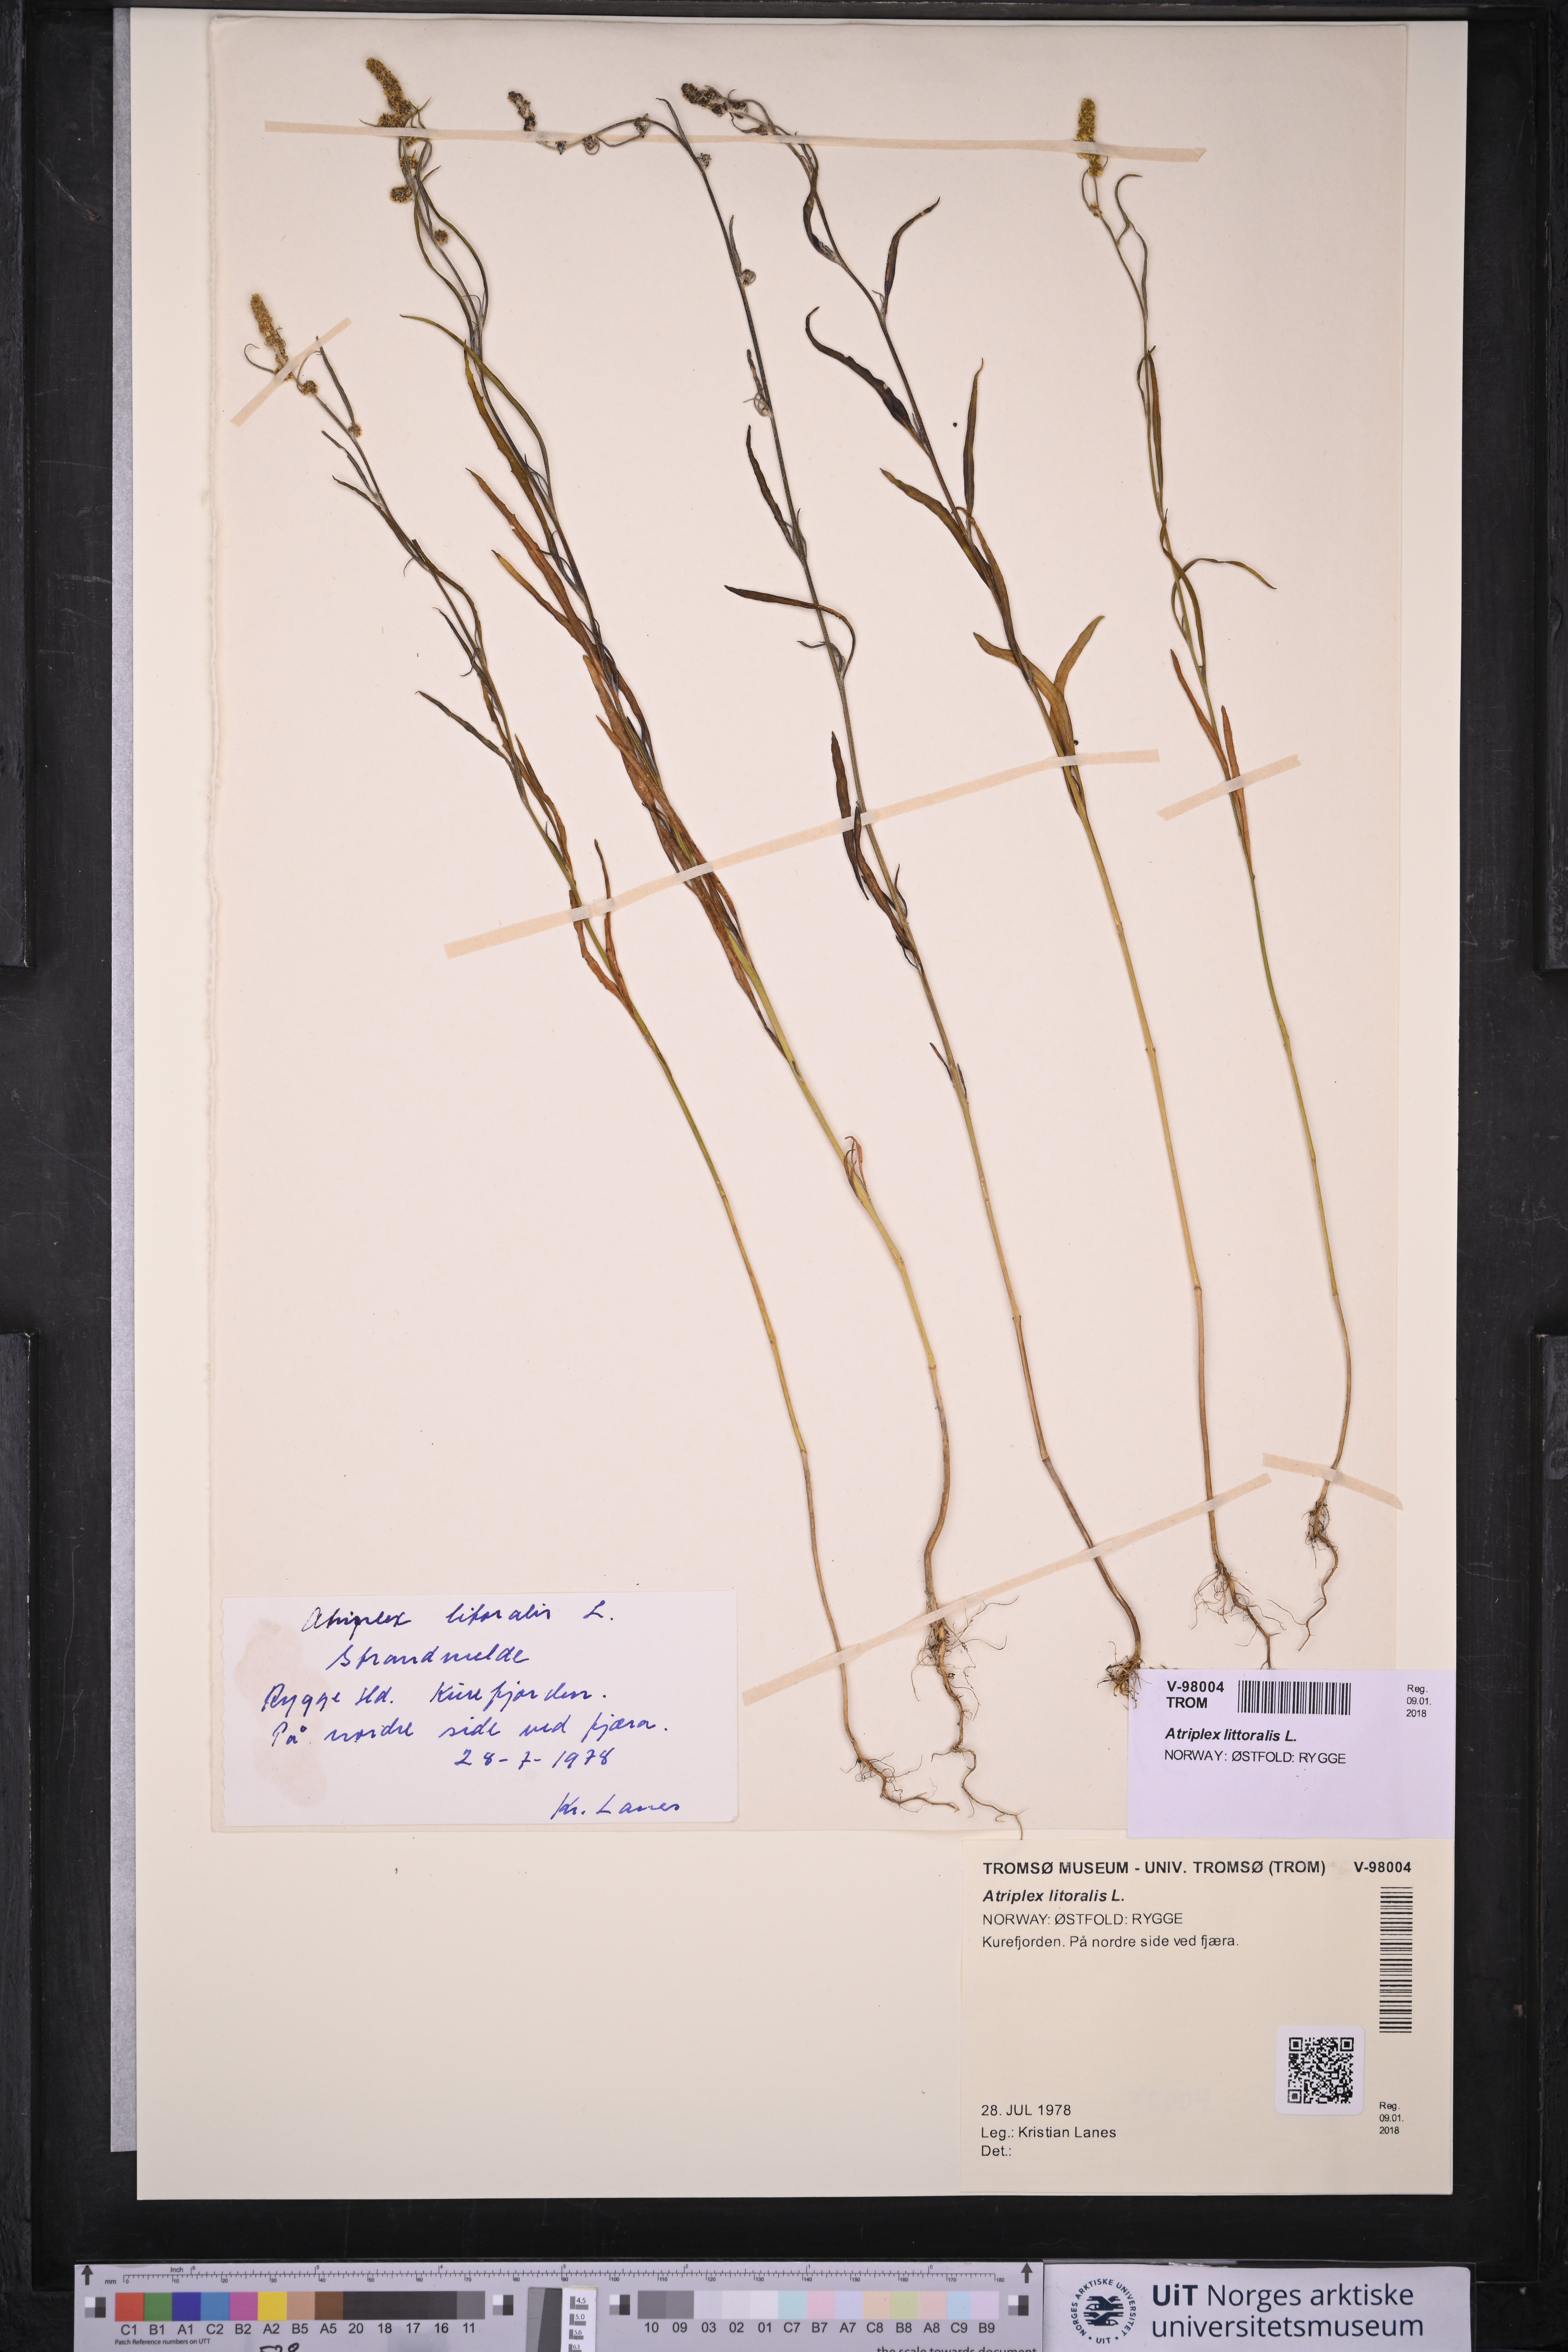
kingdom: Plantae
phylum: Tracheophyta
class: Magnoliopsida
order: Caryophyllales
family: Amaranthaceae
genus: Atriplex
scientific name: Atriplex littoralis
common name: Grass-leaved orache
